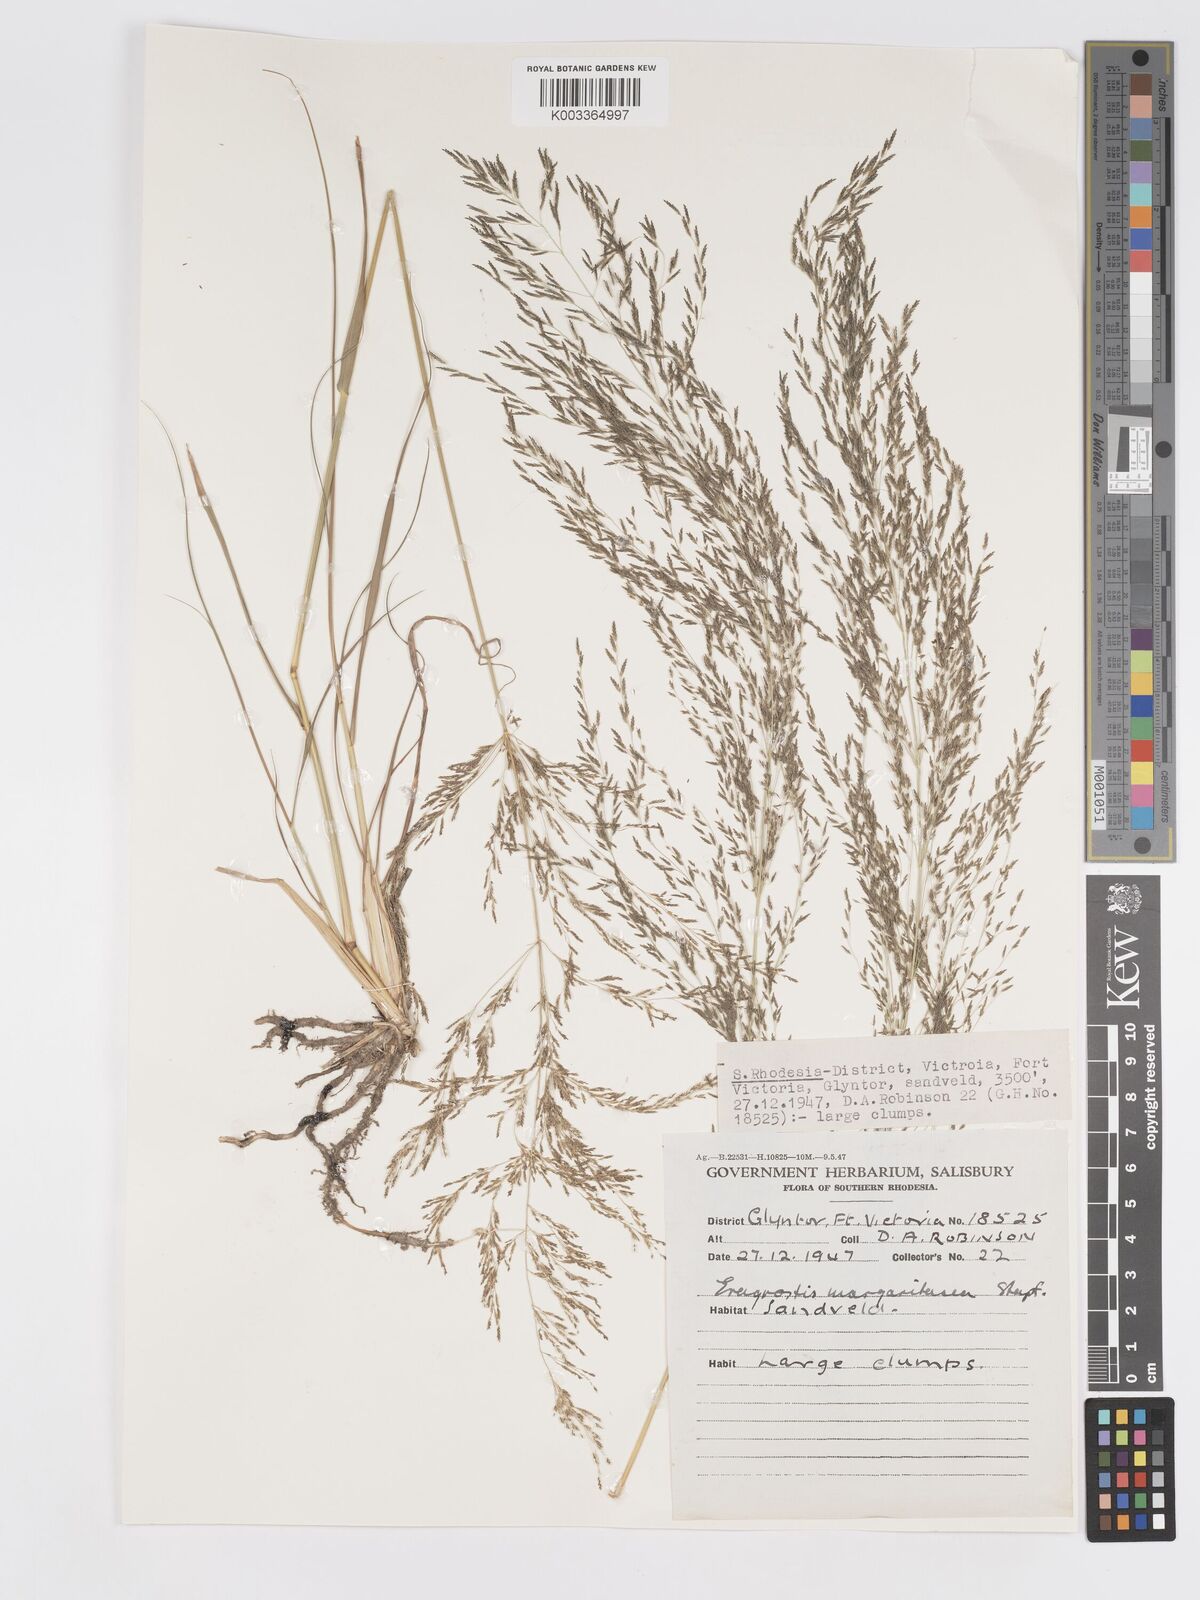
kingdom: Plantae
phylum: Tracheophyta
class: Liliopsida
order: Poales
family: Poaceae
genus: Eragrostis
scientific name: Eragrostis rotifer
